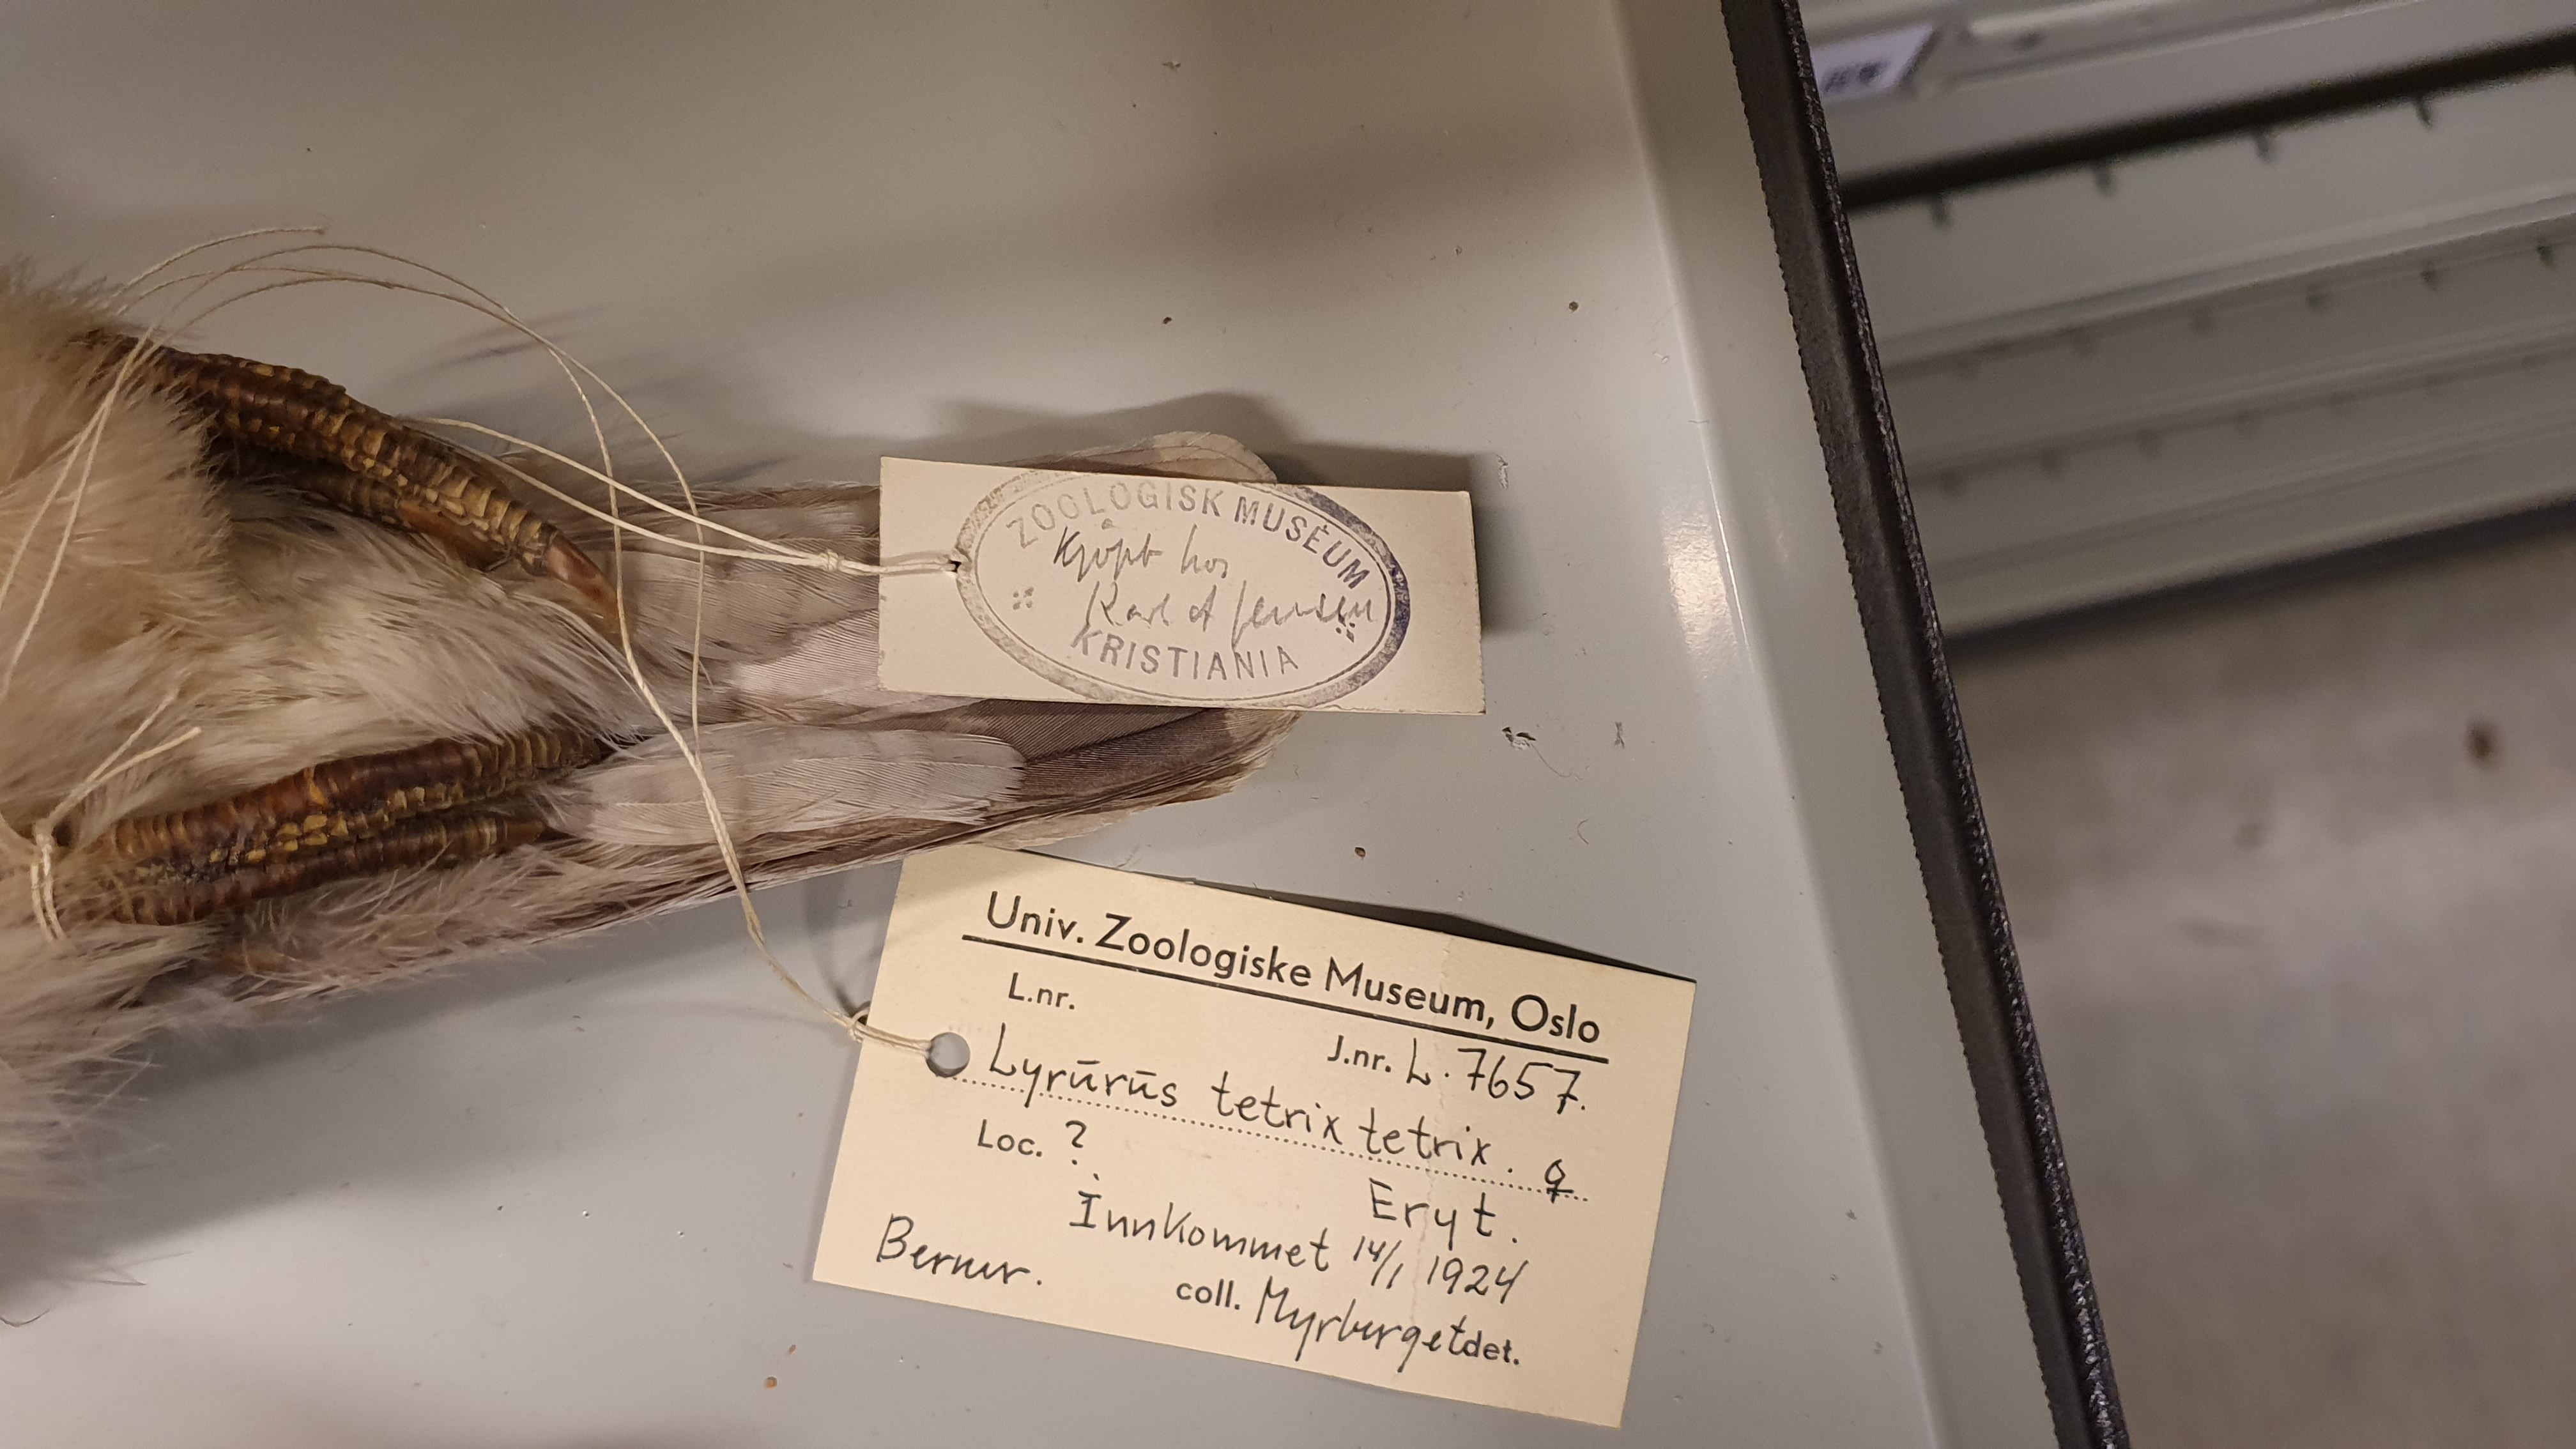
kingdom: Animalia
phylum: Chordata
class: Aves
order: Galliformes
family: Phasianidae
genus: Lyrurus
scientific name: Lyrurus tetrix
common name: Black grouse
